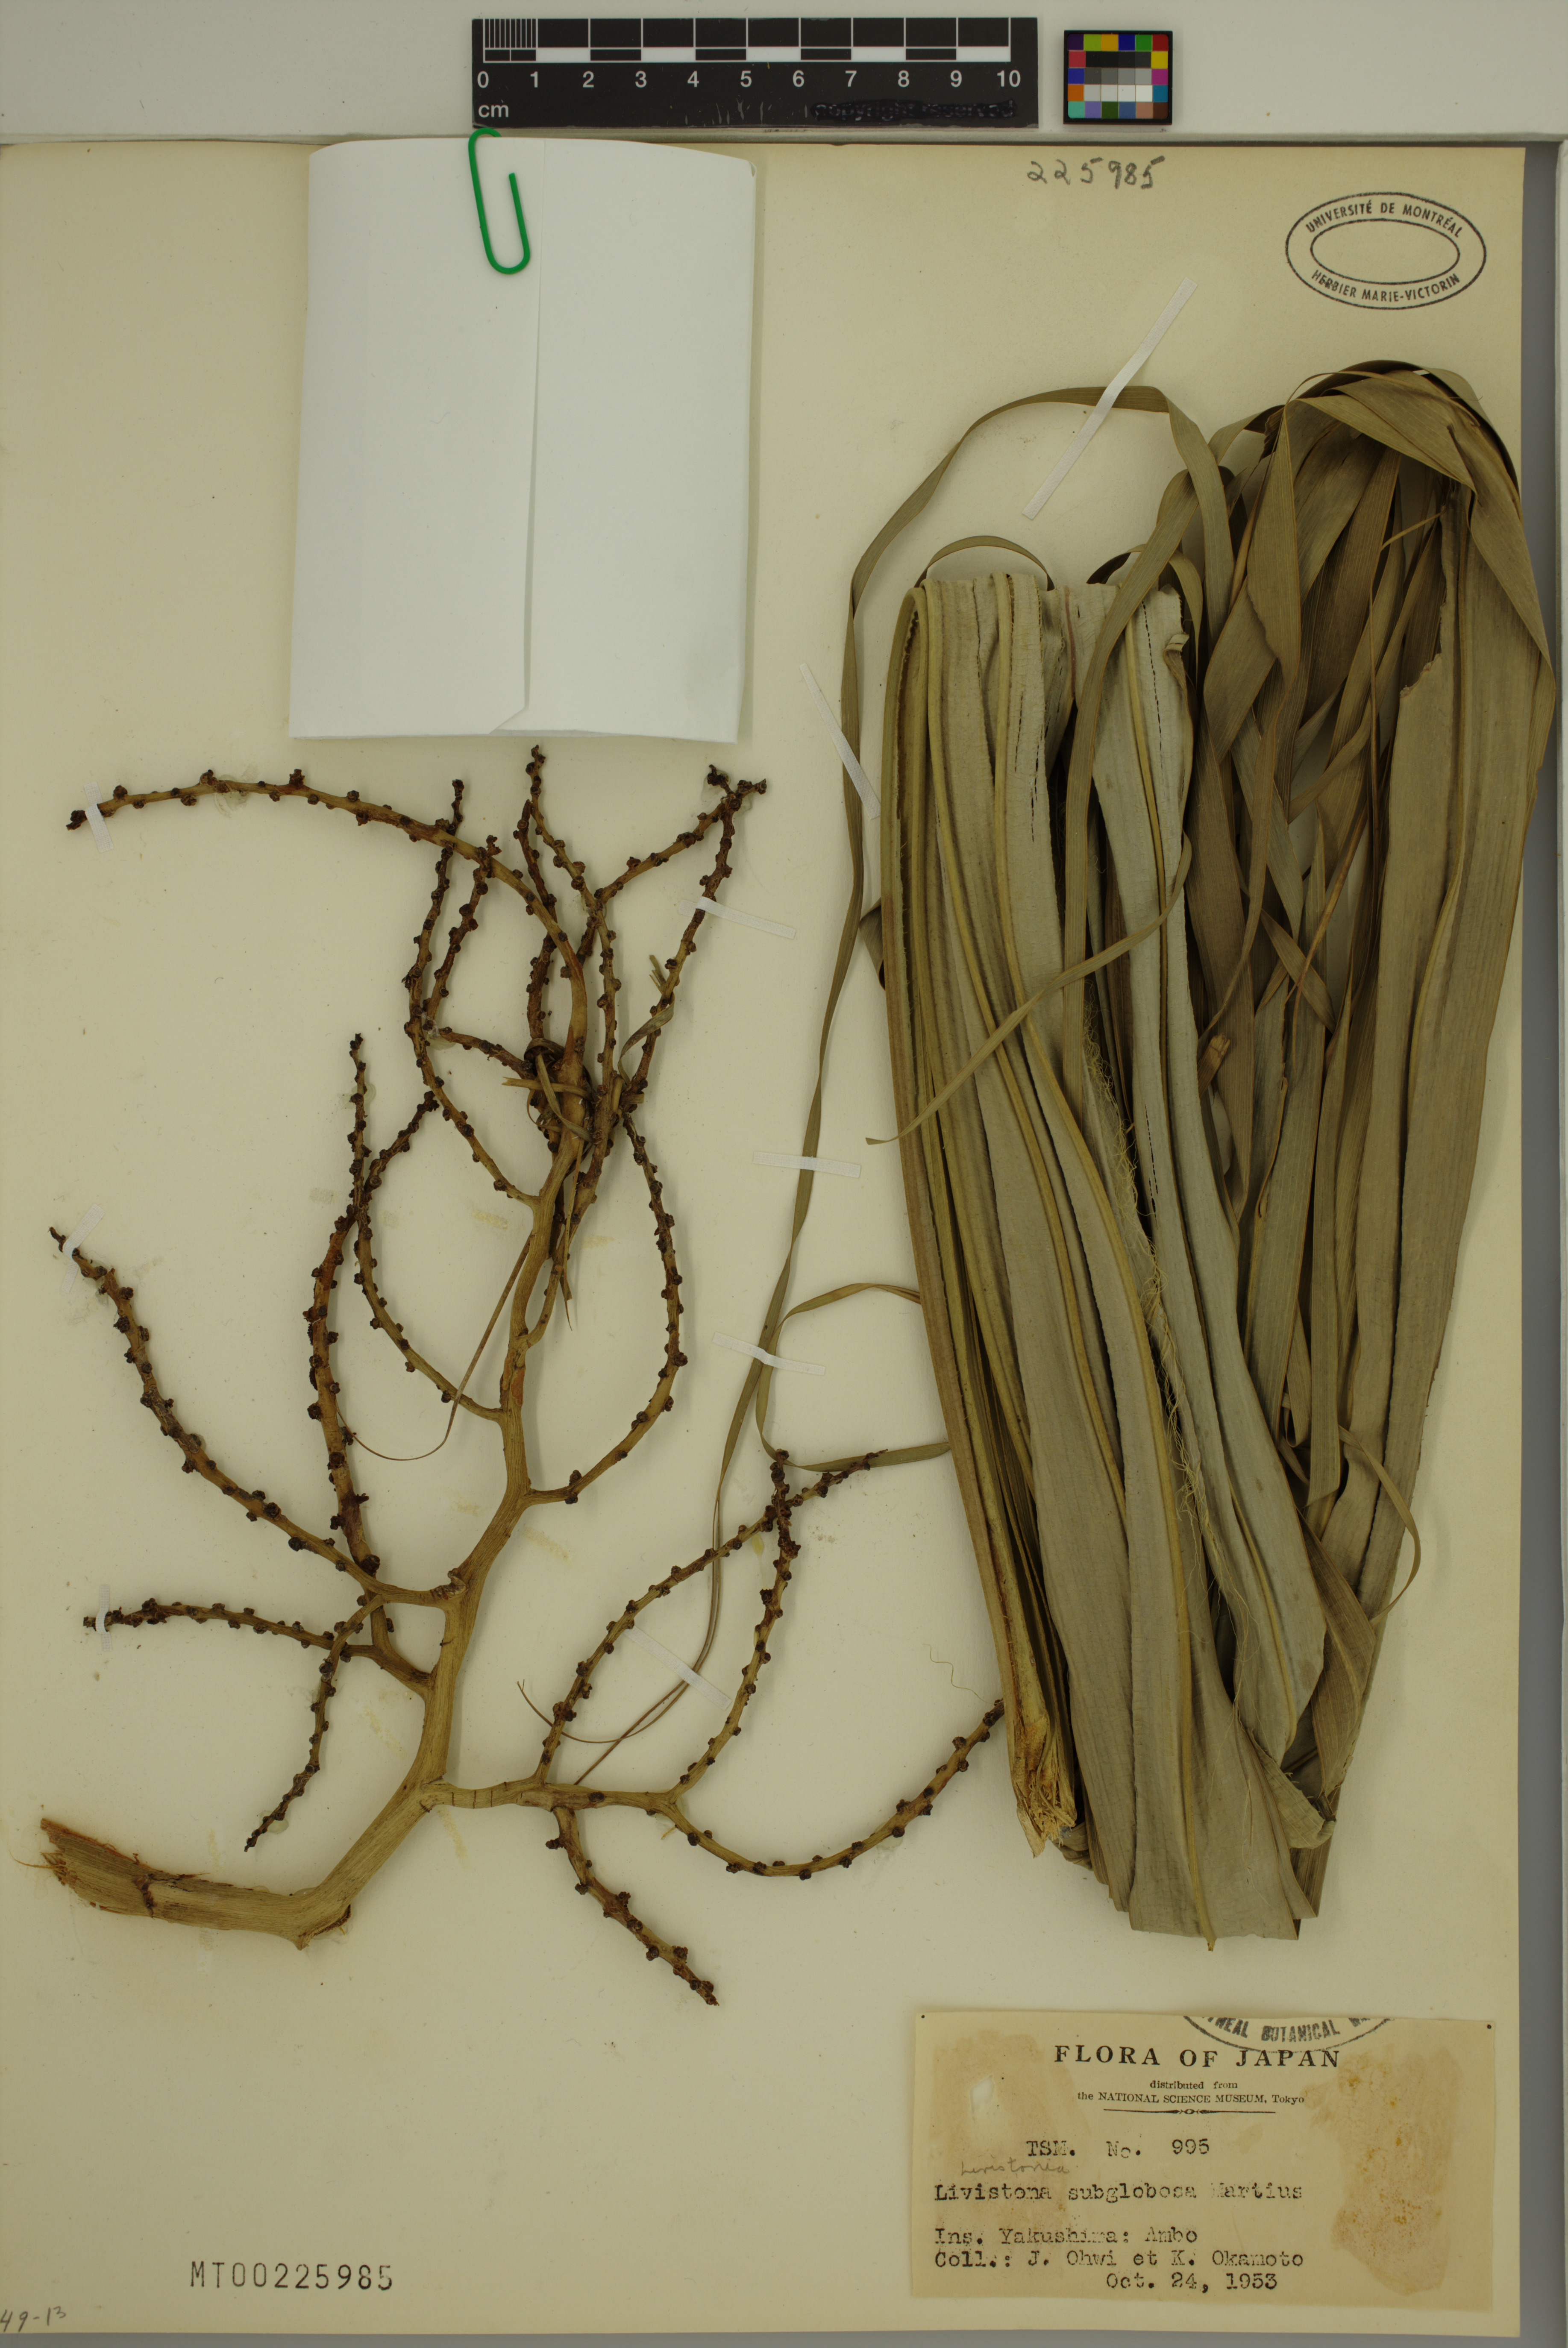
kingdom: Plantae
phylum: Tracheophyta
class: Liliopsida
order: Arecales
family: Arecaceae
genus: Livistona
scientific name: Livistona chinensis
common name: Fountain palm
